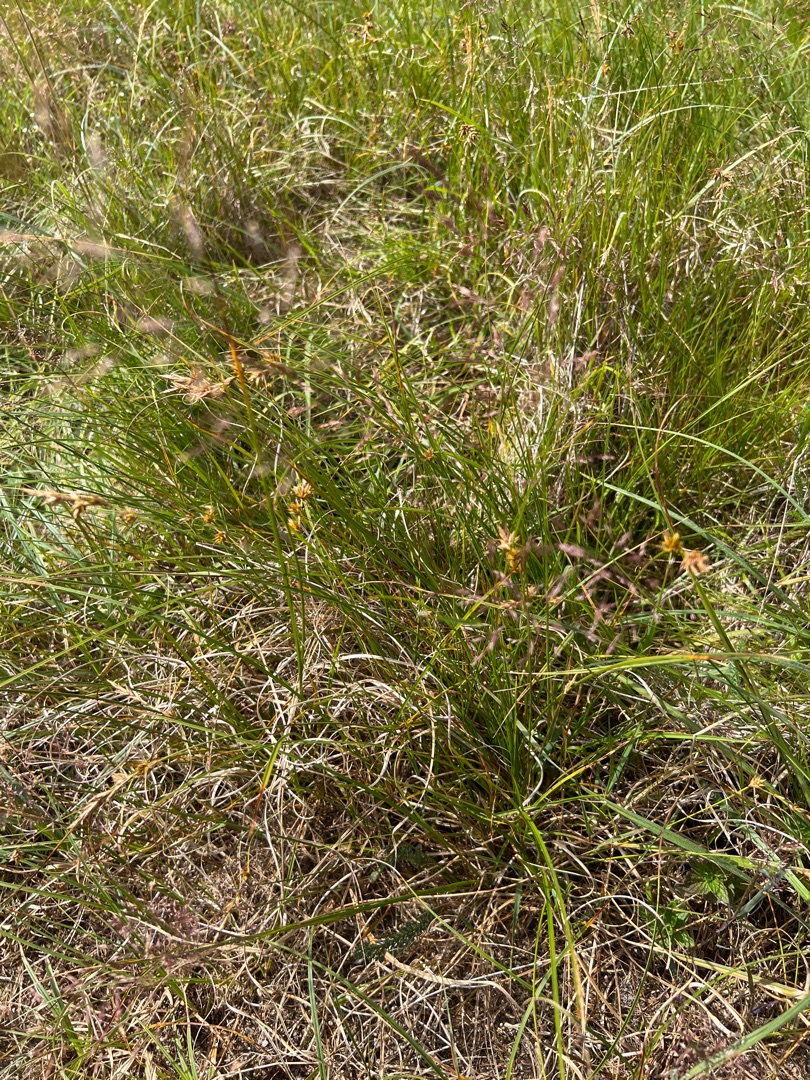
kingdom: Plantae
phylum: Tracheophyta
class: Liliopsida
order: Poales
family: Cyperaceae
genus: Carex
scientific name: Carex arenaria
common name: Sand-star
